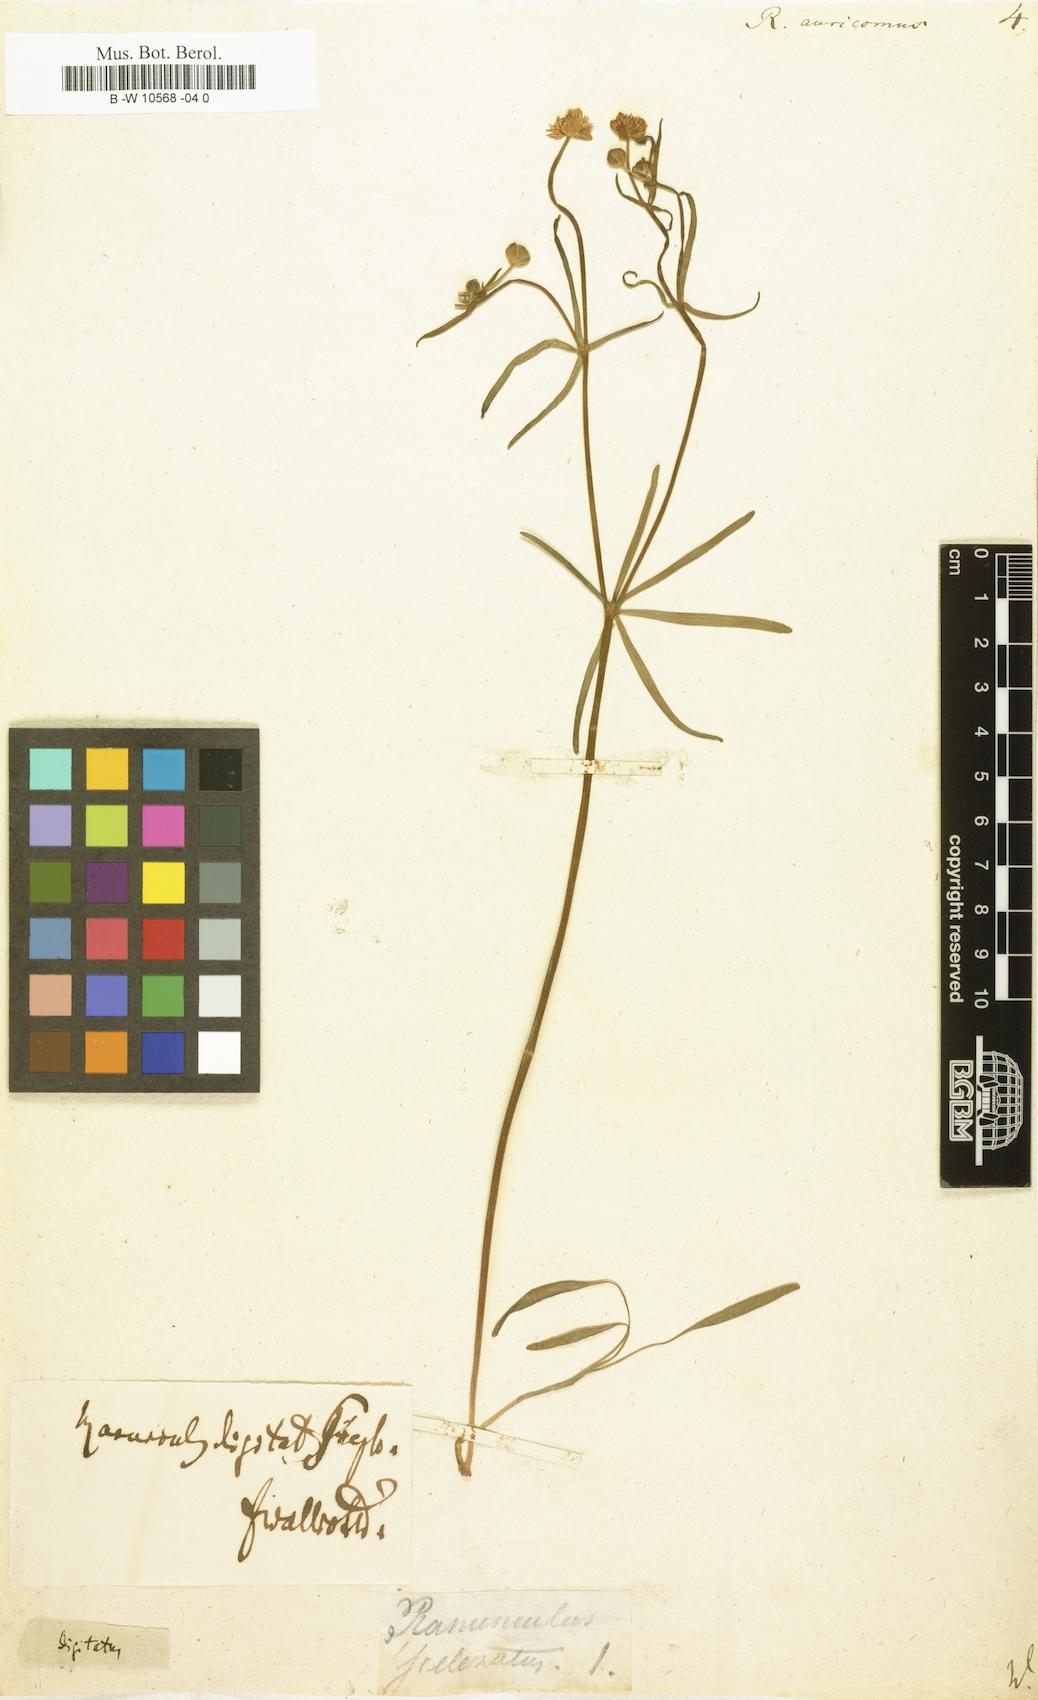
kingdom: Plantae
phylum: Tracheophyta
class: Magnoliopsida
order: Ranunculales
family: Ranunculaceae
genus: Ranunculus
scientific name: Ranunculus auricomus
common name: Goldilocks buttercup
